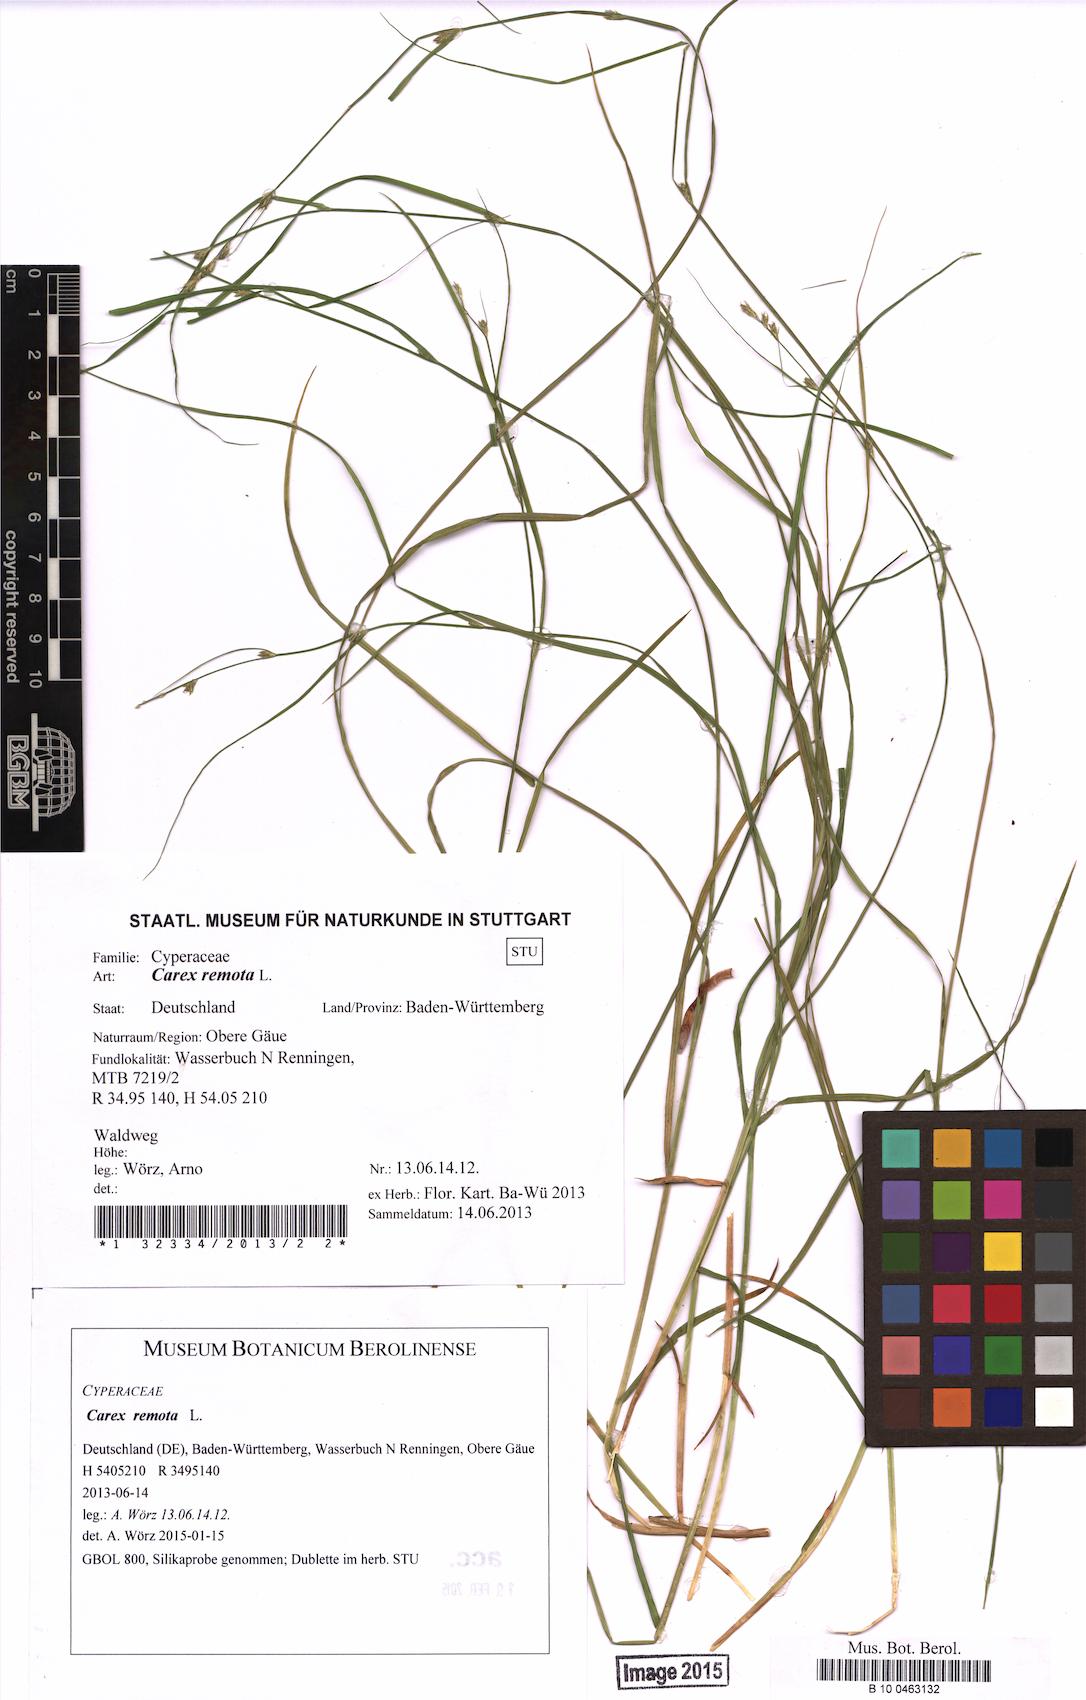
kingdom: Plantae
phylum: Tracheophyta
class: Liliopsida
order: Poales
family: Cyperaceae
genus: Carex
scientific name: Carex remota
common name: Remote sedge
